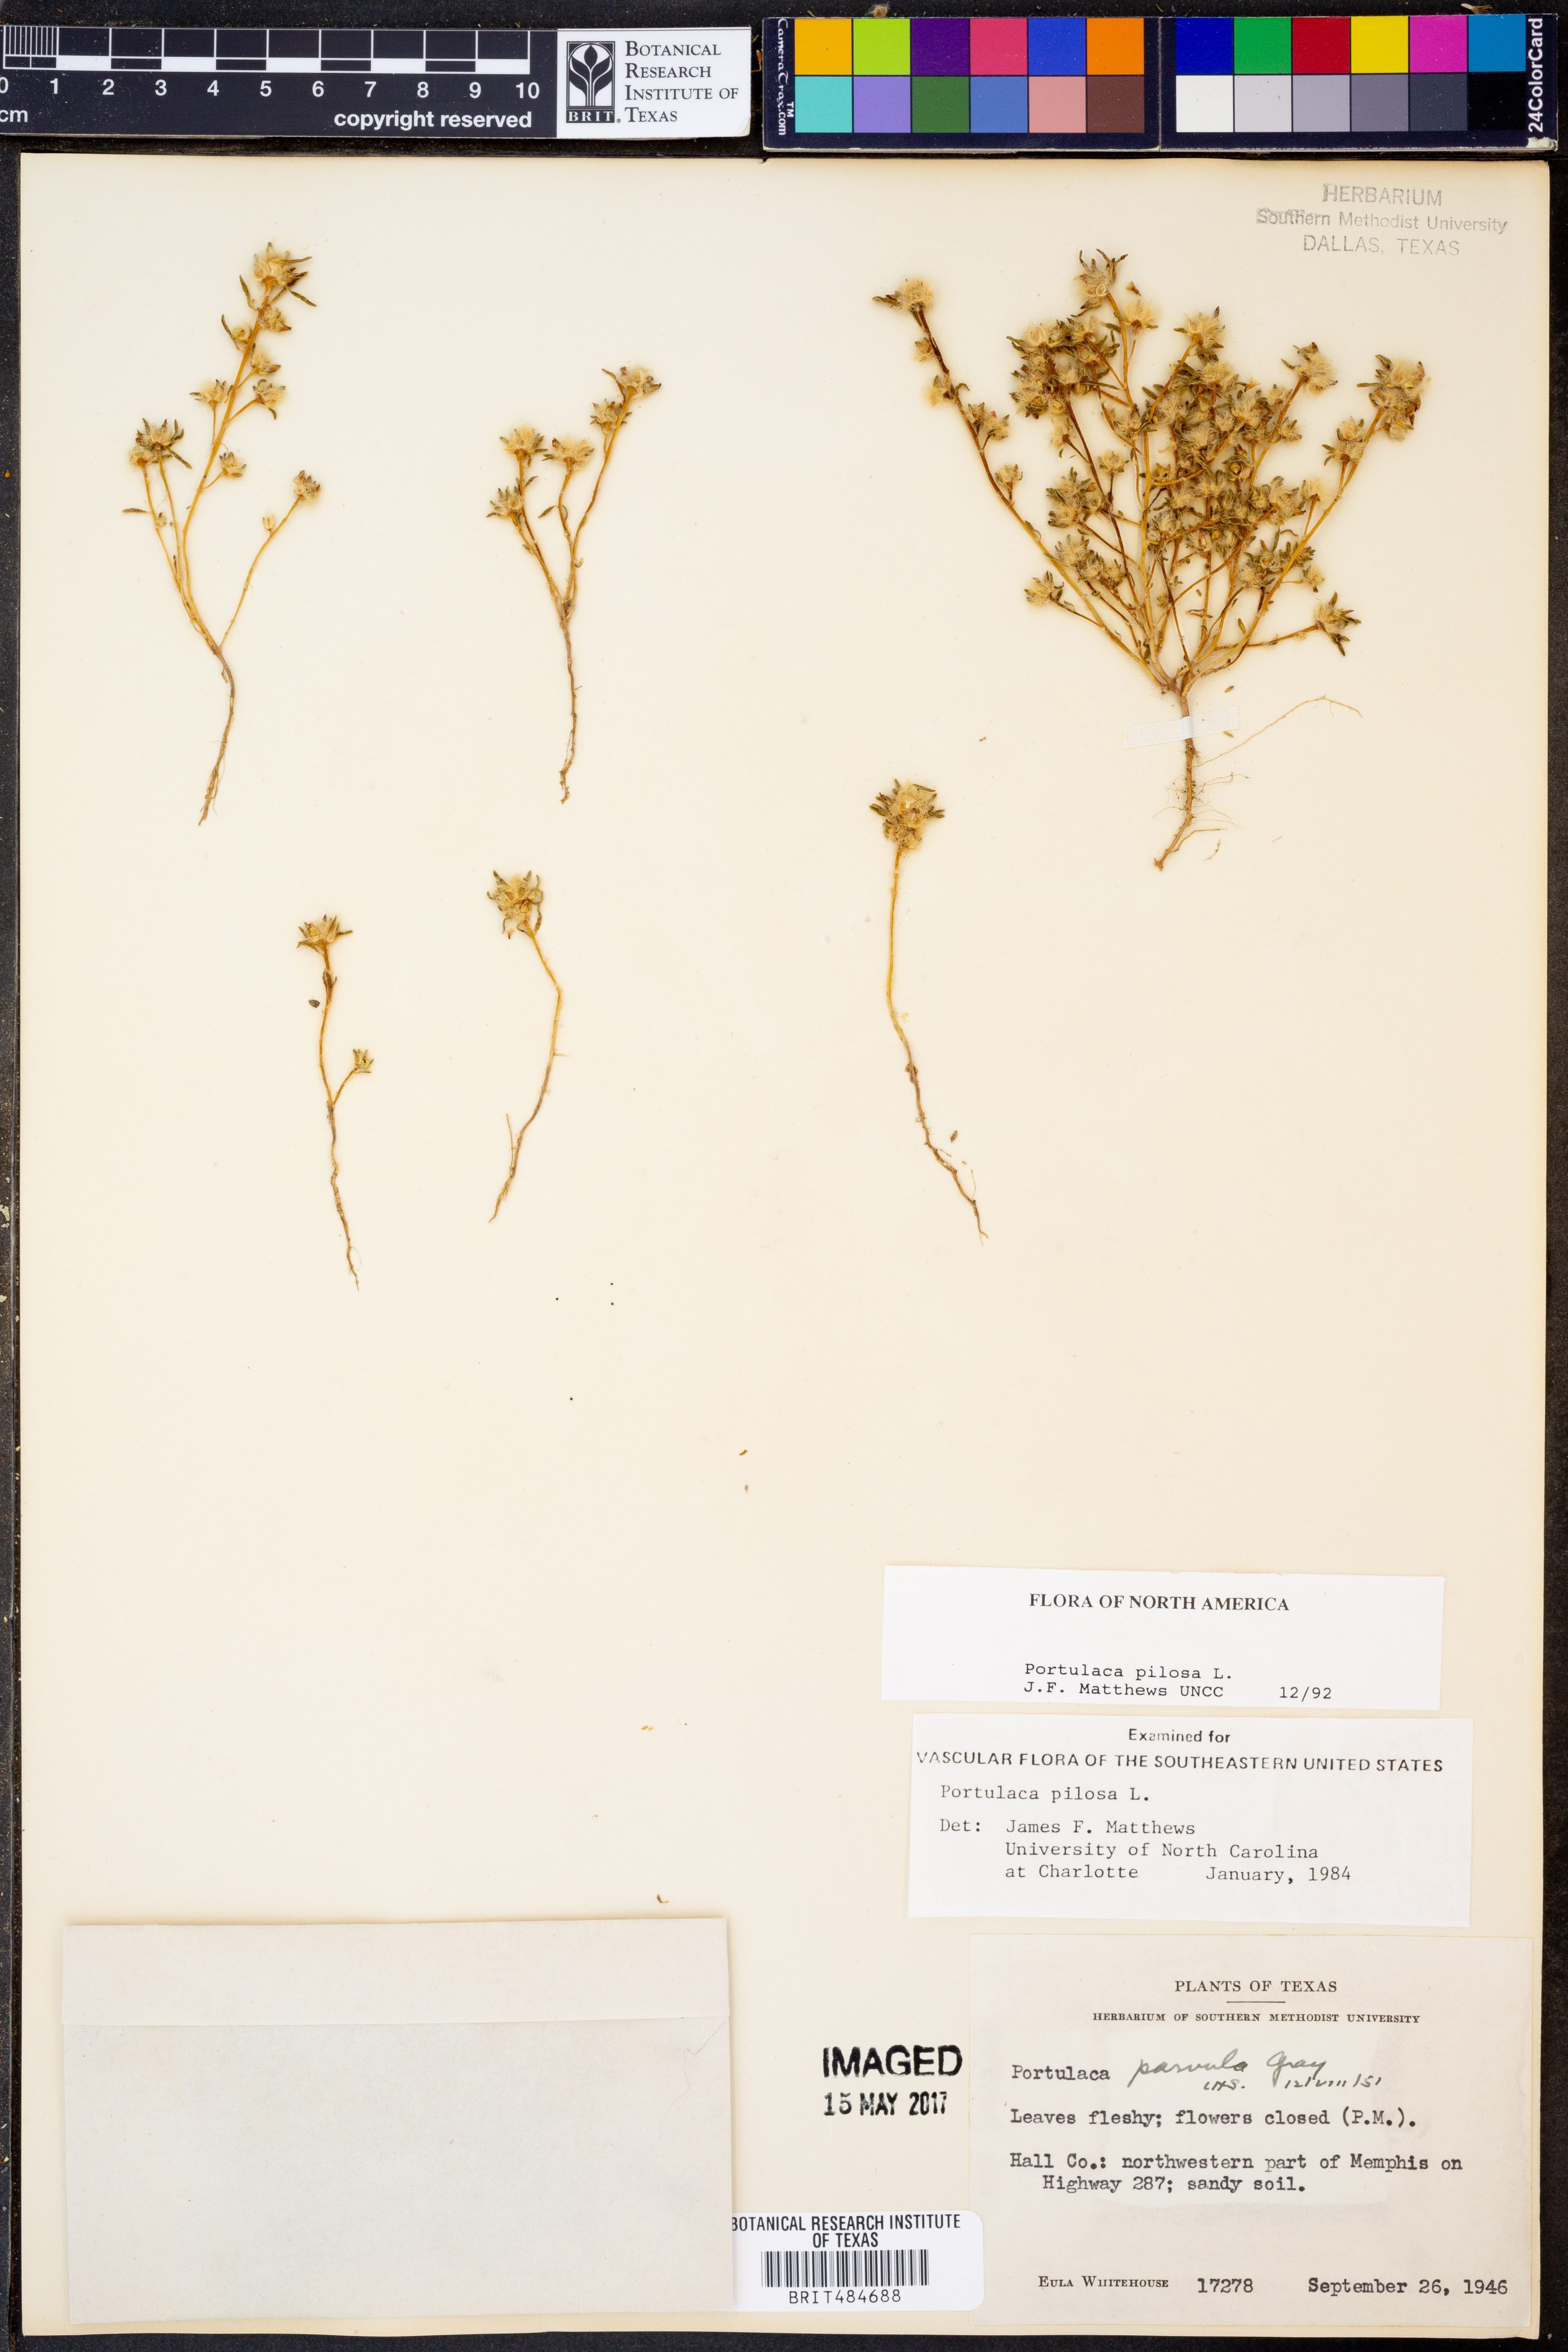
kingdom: Plantae
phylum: Tracheophyta
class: Magnoliopsida
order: Caryophyllales
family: Portulacaceae
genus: Portulaca
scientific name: Portulaca pilosa
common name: Kiss me quick
